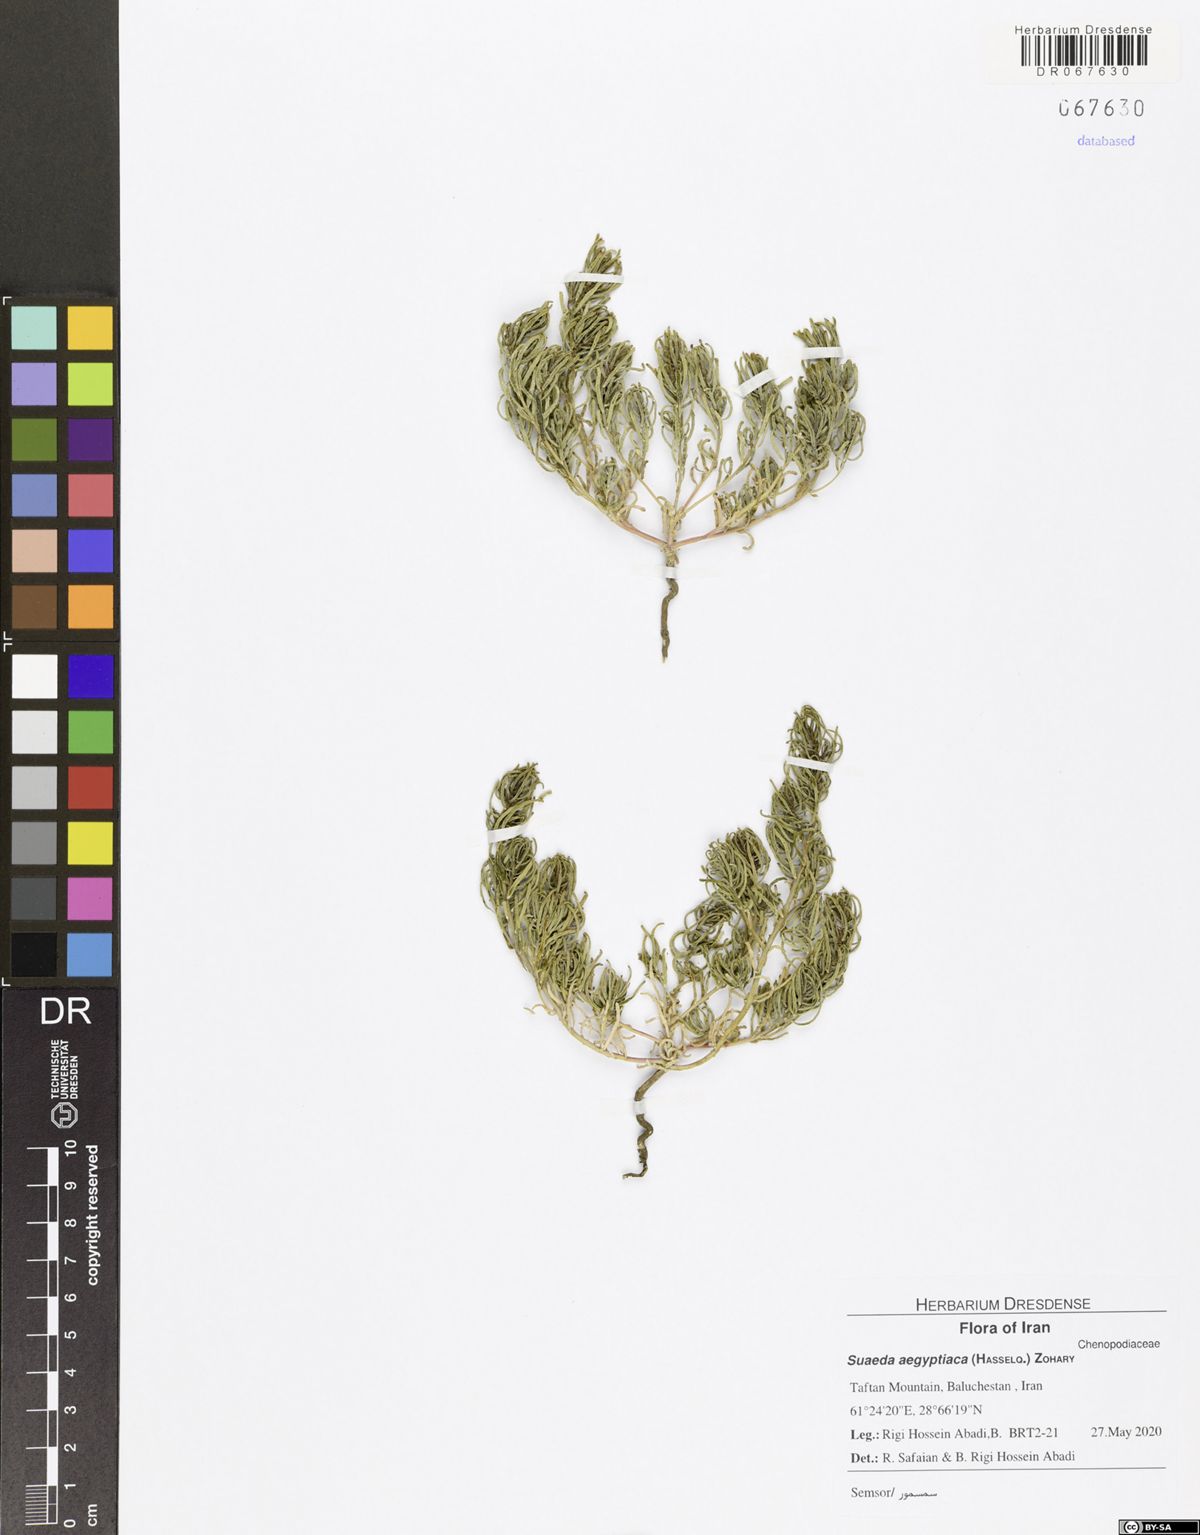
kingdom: Plantae
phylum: Tracheophyta
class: Magnoliopsida
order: Caryophyllales
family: Amaranthaceae
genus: Suaeda
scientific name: Suaeda aegyptiaca
